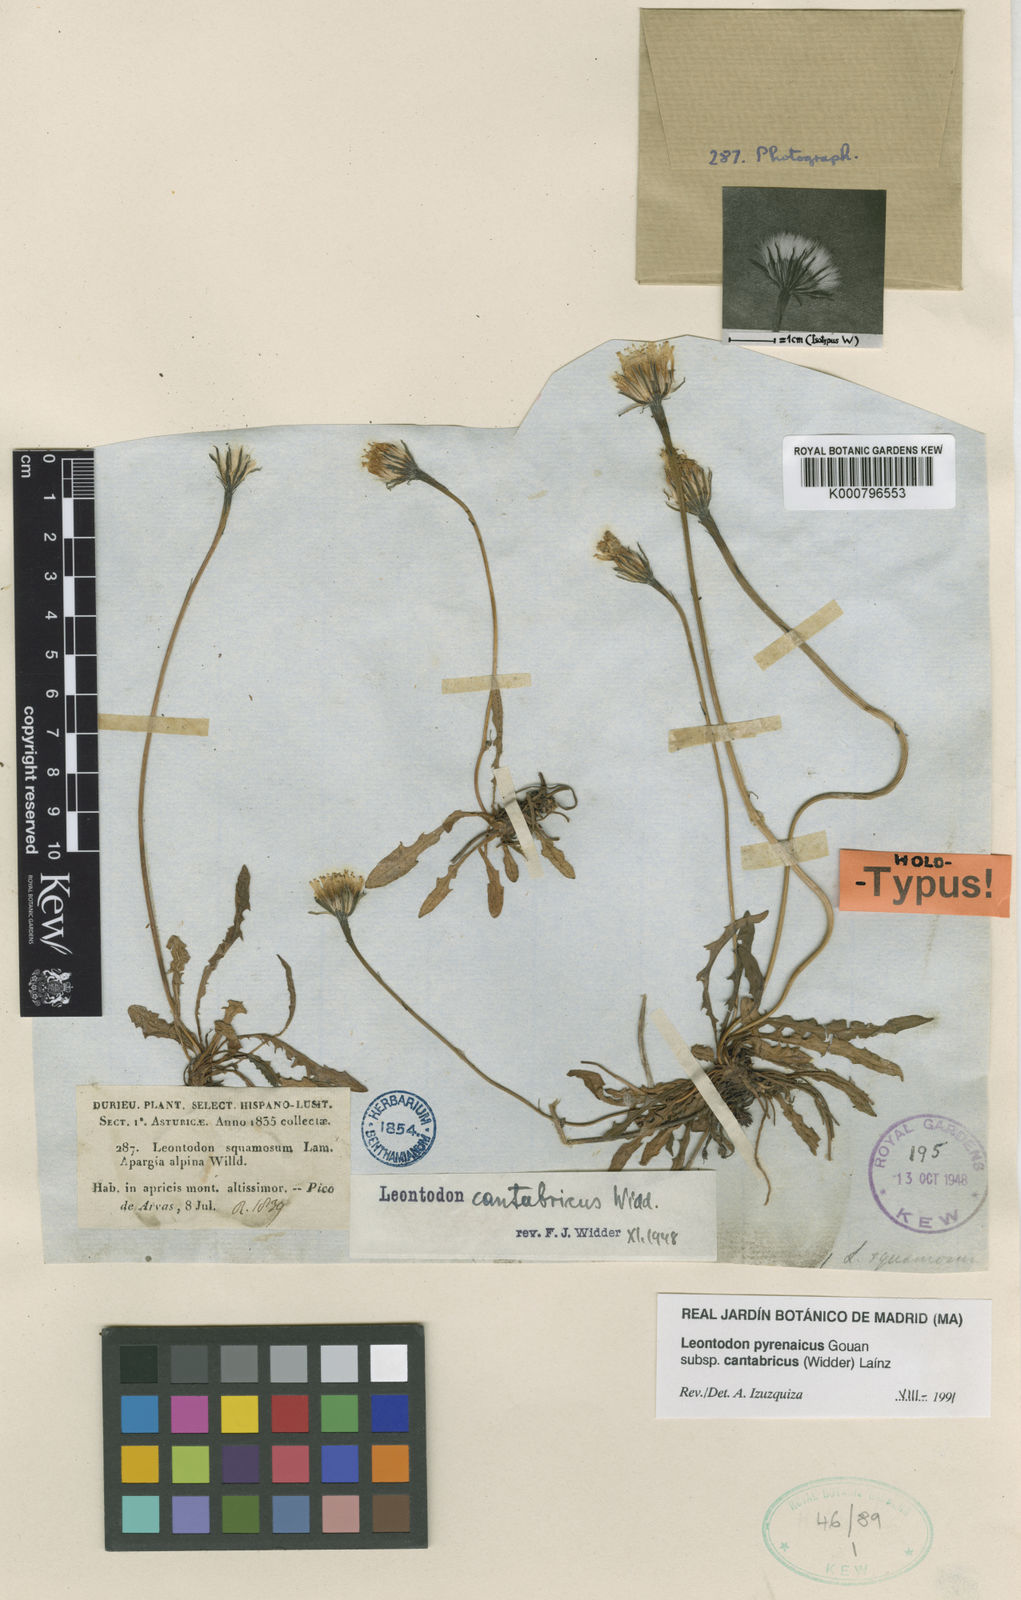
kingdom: Plantae
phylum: Tracheophyta
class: Magnoliopsida
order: Asterales
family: Asteraceae
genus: Scorzoneroides
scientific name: Scorzoneroides pyrenaica
